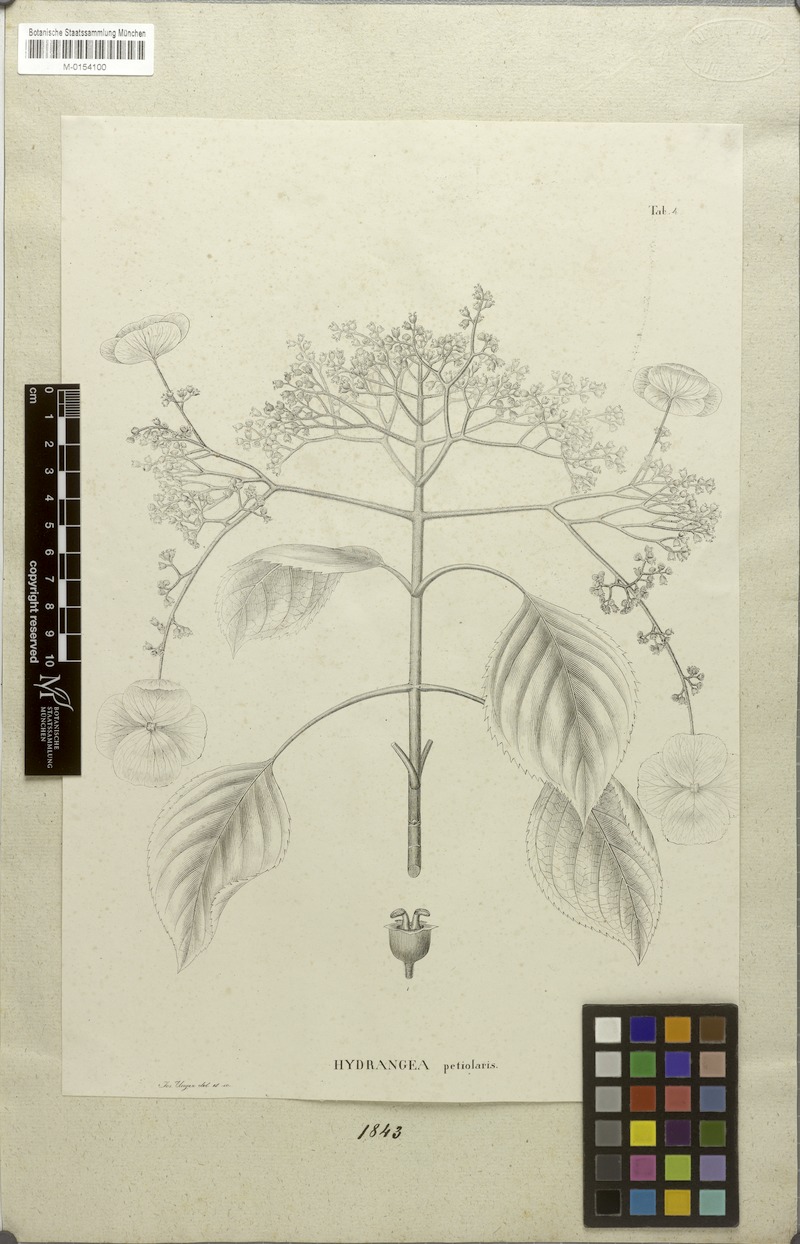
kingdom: Plantae
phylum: Tracheophyta
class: Magnoliopsida
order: Cornales
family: Hydrangeaceae
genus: Hydrangea
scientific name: Hydrangea petiolaris
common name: Japanese climbing hydrangea
